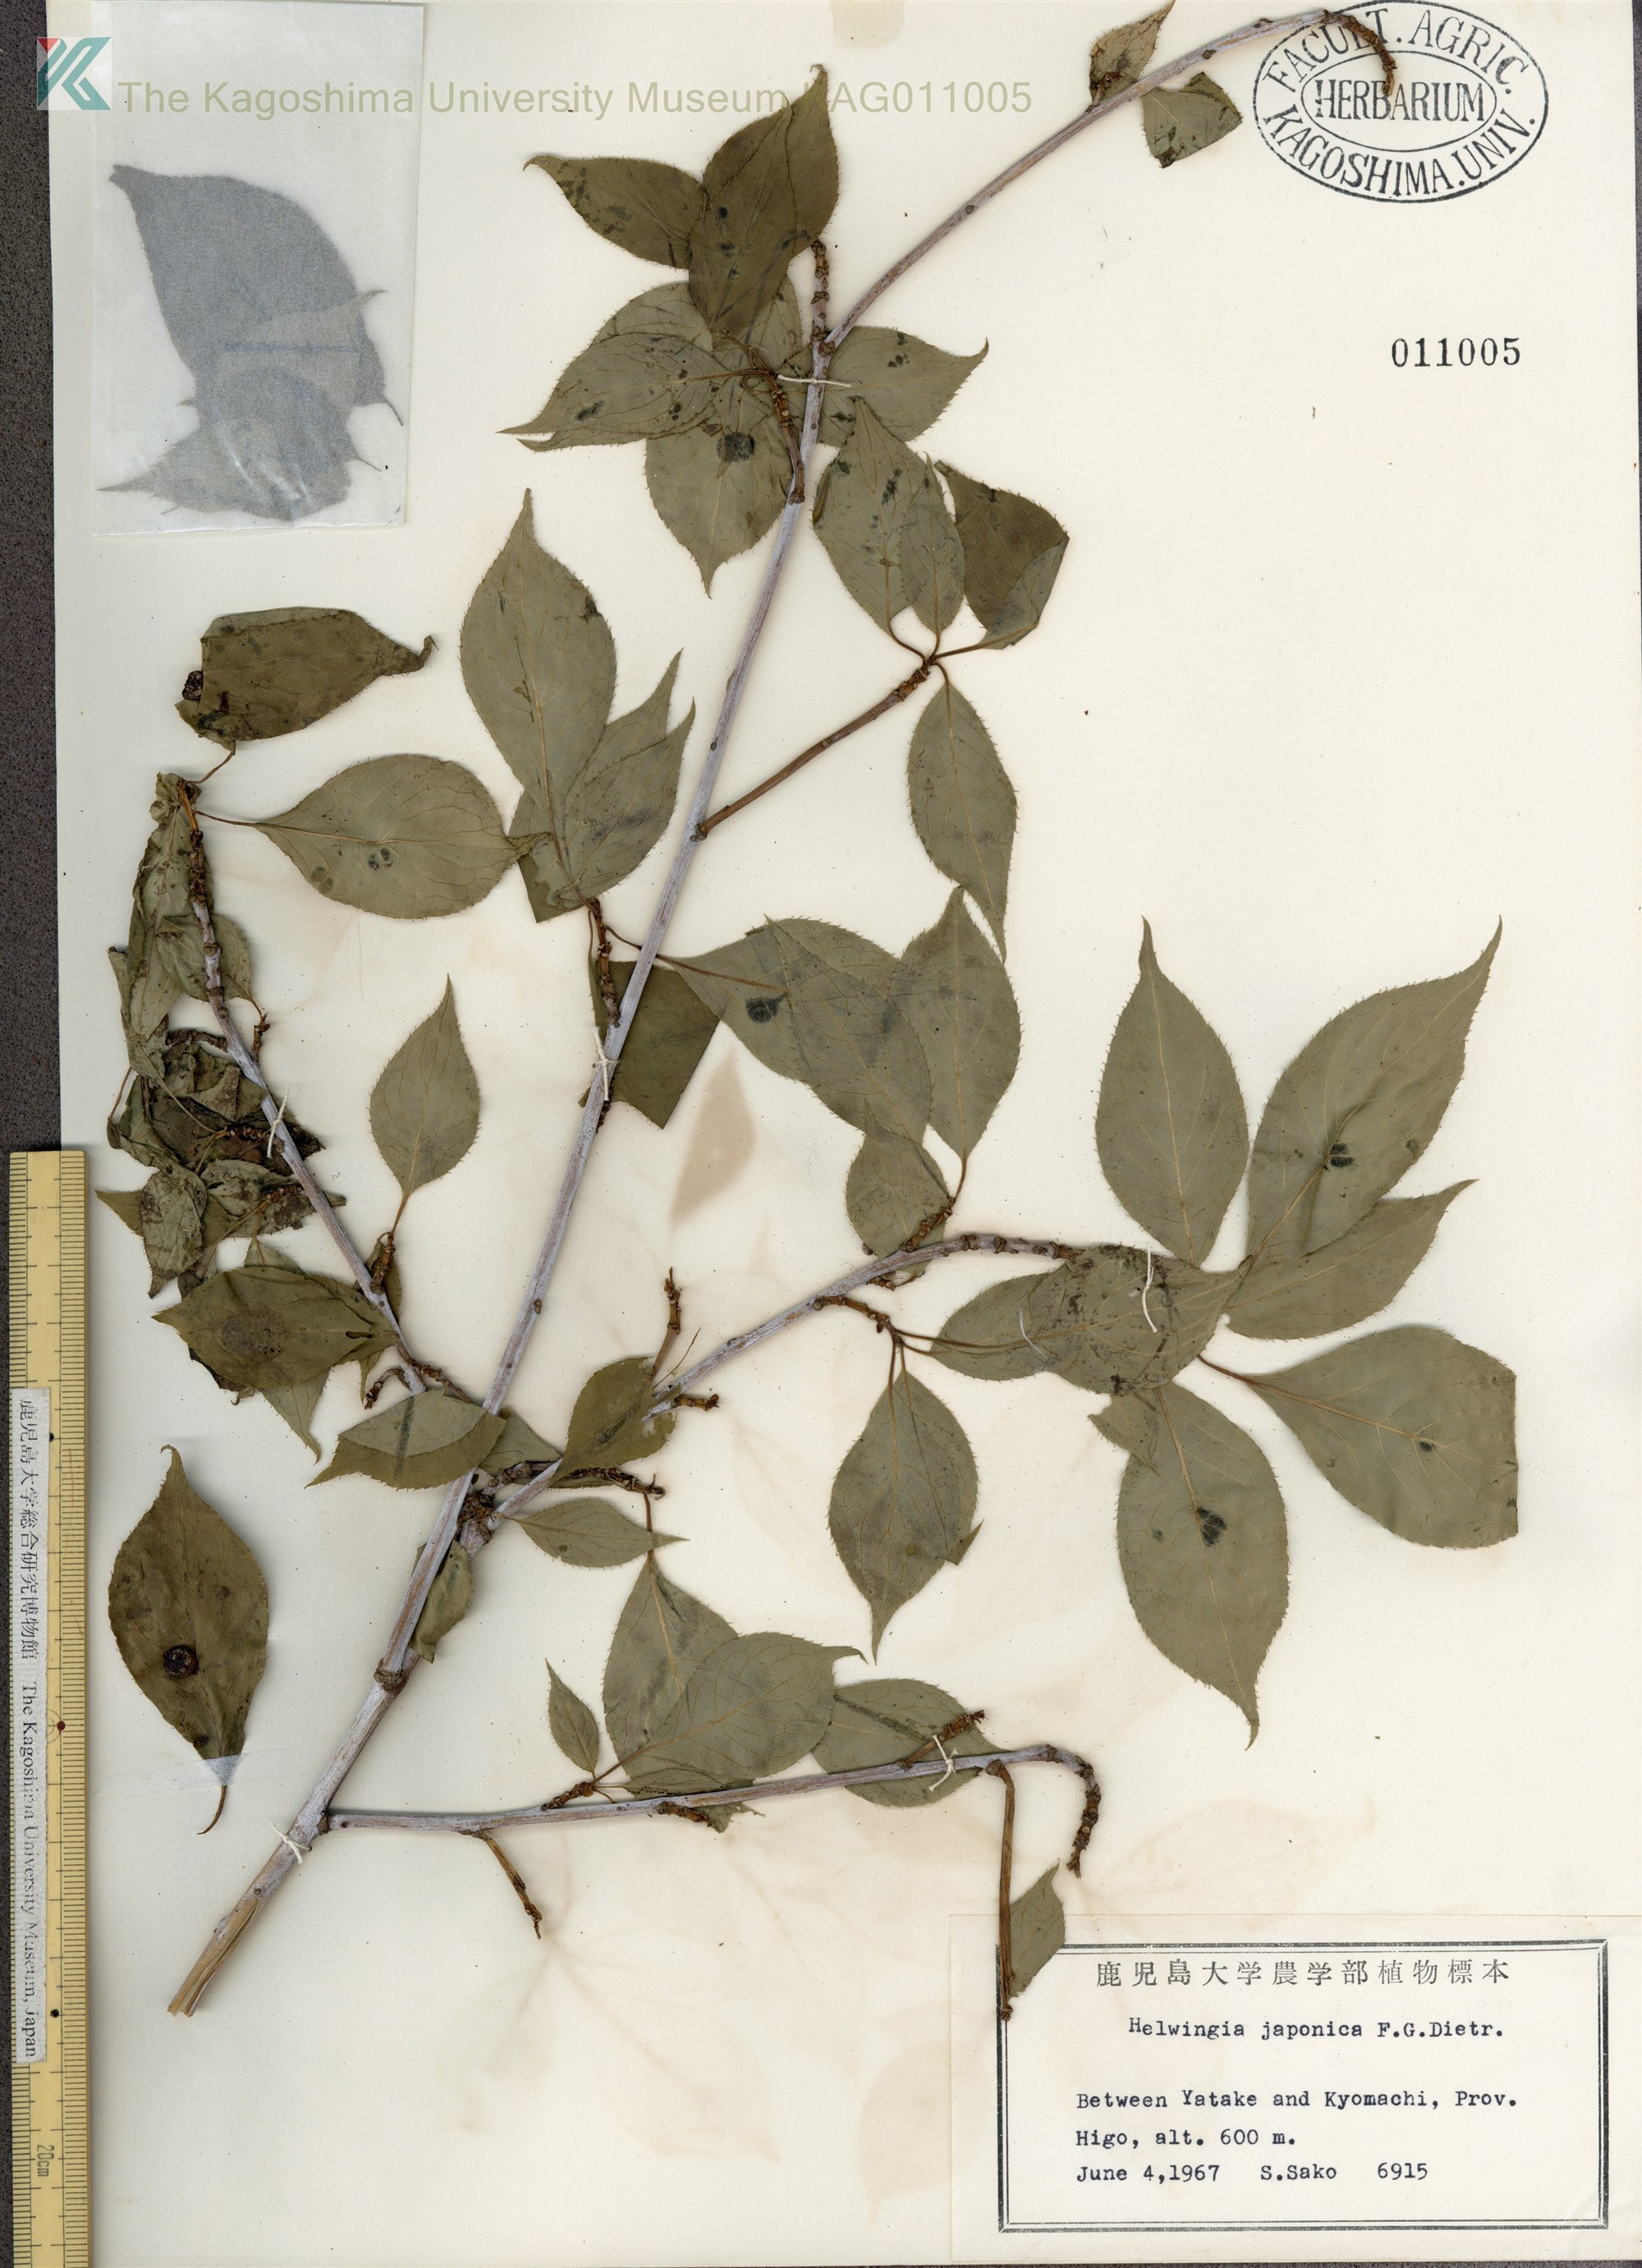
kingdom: Plantae
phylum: Tracheophyta
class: Magnoliopsida
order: Aquifoliales
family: Helwingiaceae
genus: Helwingia
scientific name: Helwingia japonica
